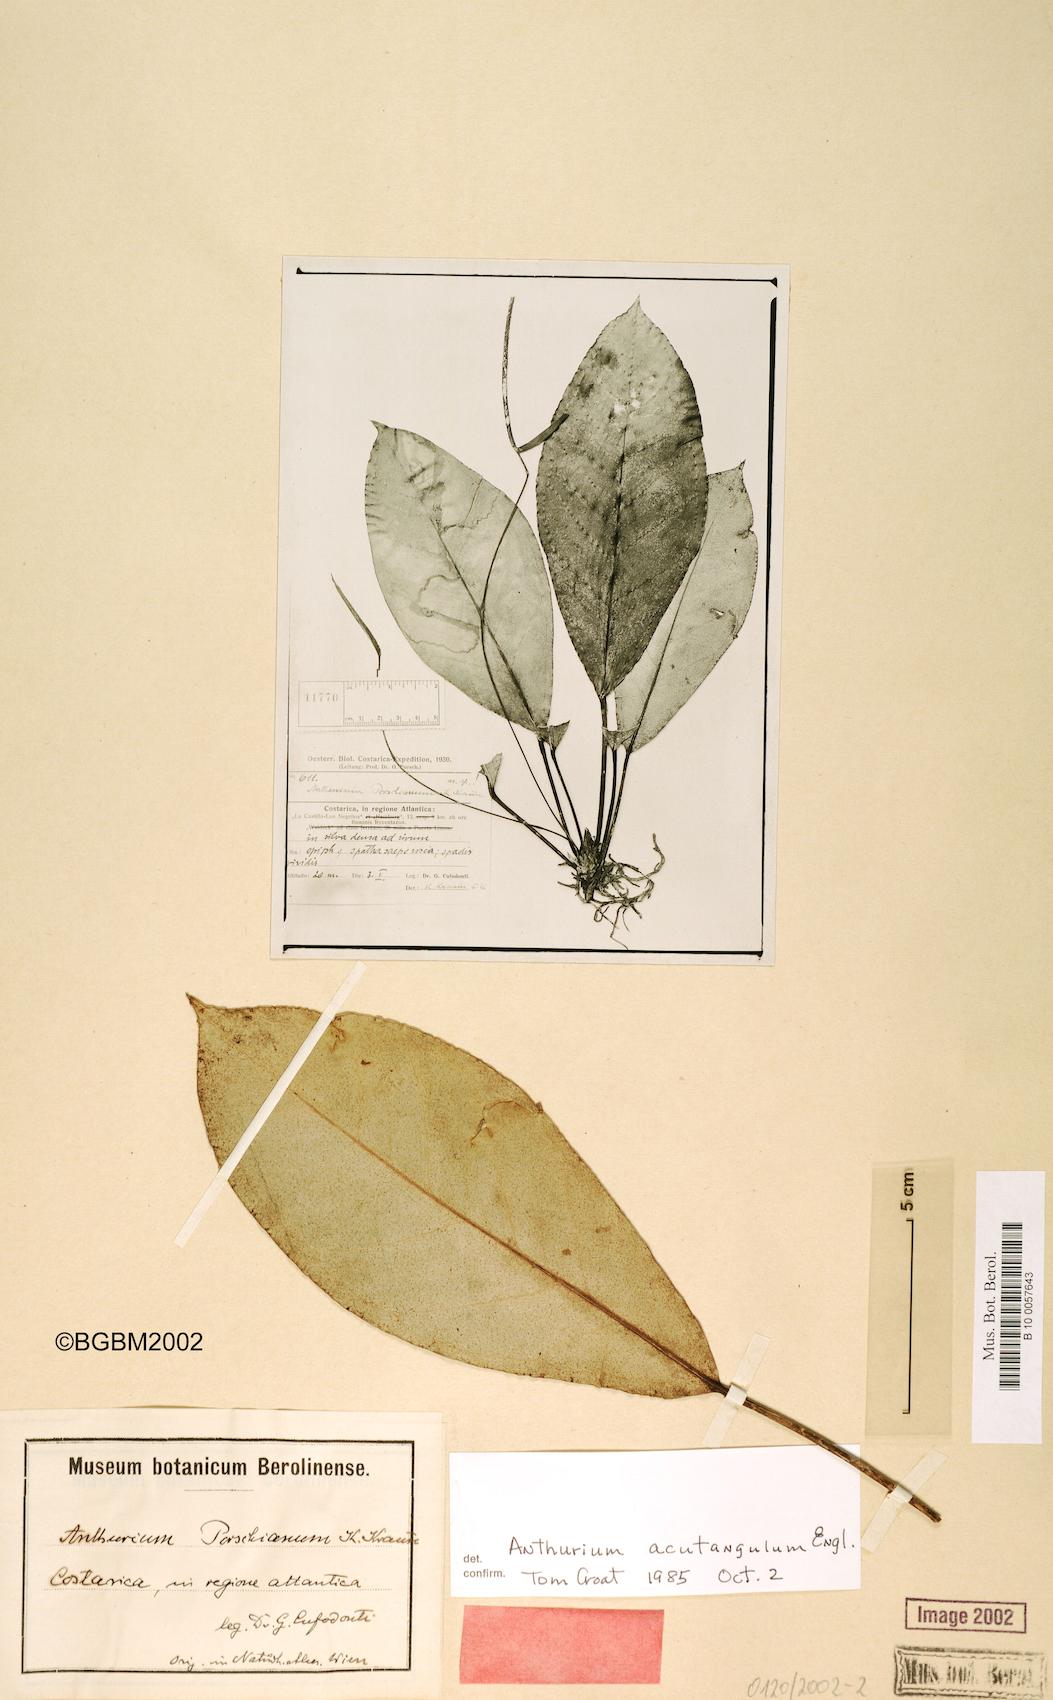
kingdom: Plantae
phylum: Tracheophyta
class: Liliopsida
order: Alismatales
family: Araceae
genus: Anthurium
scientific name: Anthurium acutangulum
